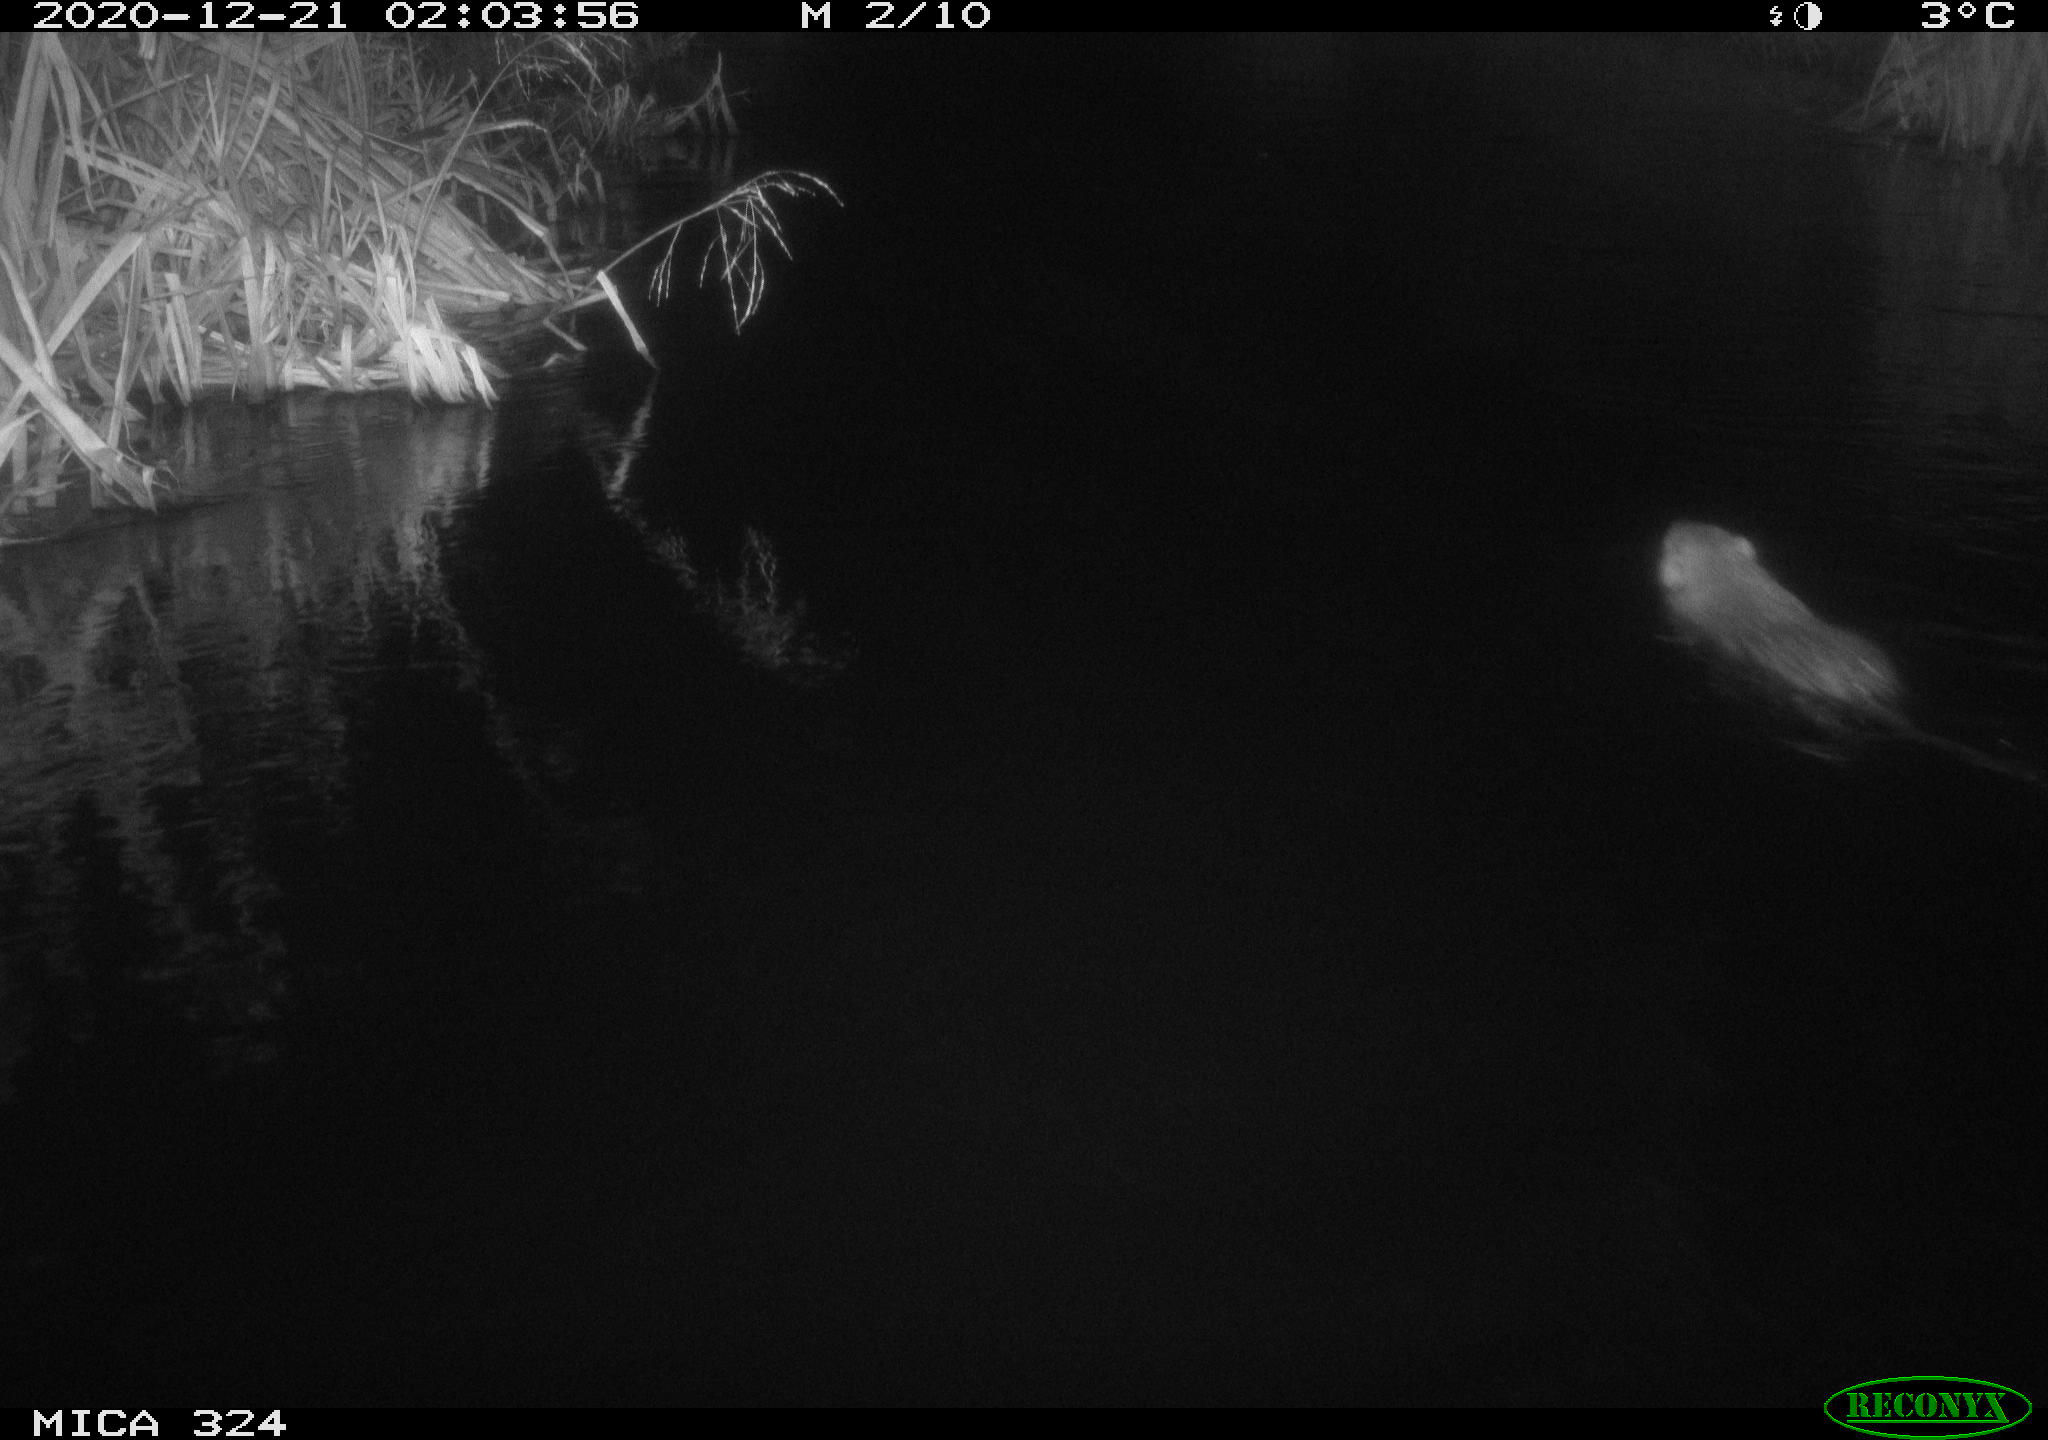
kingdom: Animalia
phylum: Chordata
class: Mammalia
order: Rodentia
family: Myocastoridae
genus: Myocastor
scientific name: Myocastor coypus
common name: Coypu
